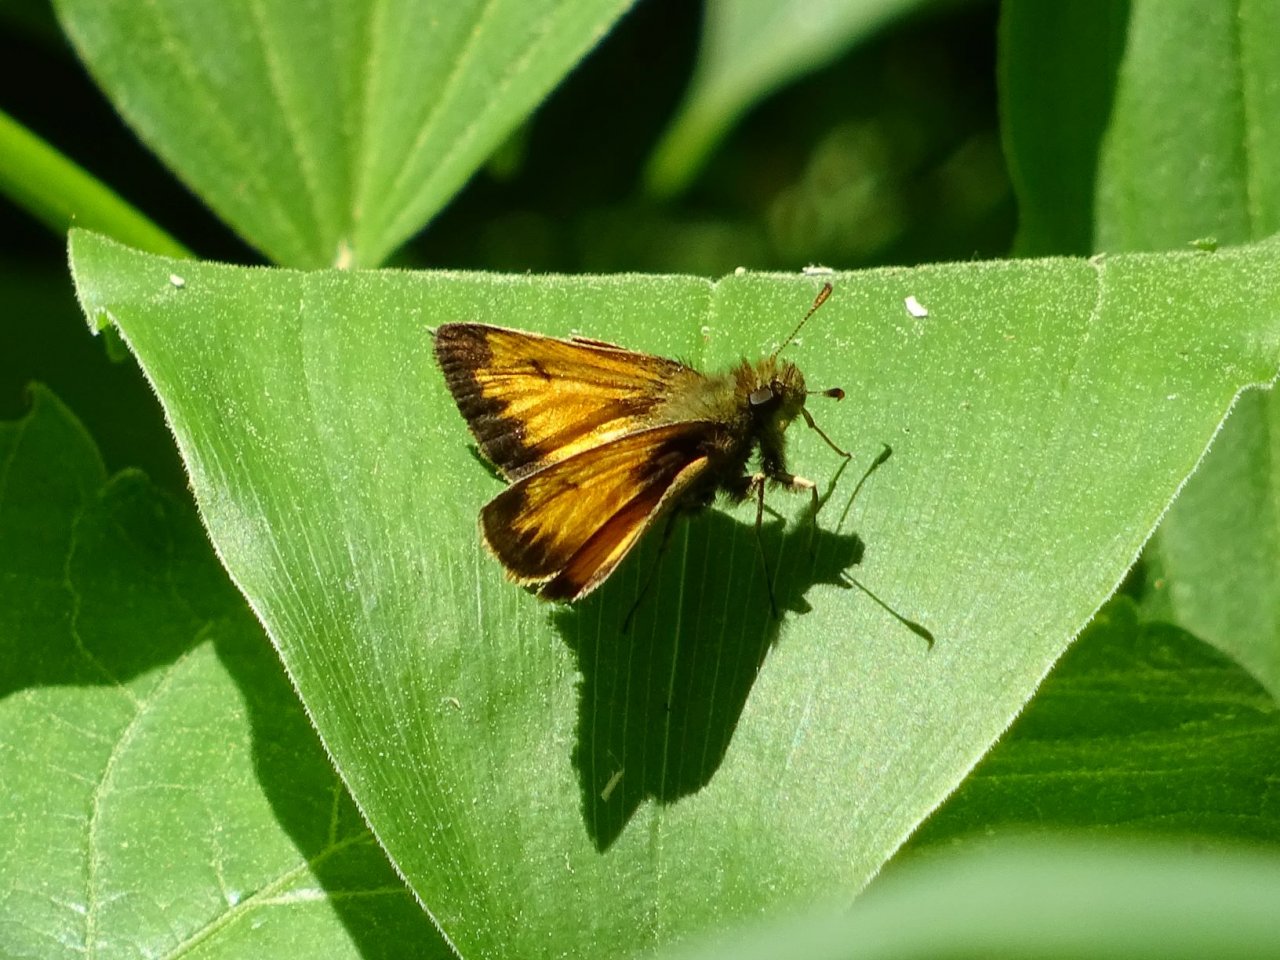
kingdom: Animalia
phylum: Arthropoda
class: Insecta
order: Lepidoptera
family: Hesperiidae
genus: Lon
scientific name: Lon hobomok
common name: Hobomok Skipper
